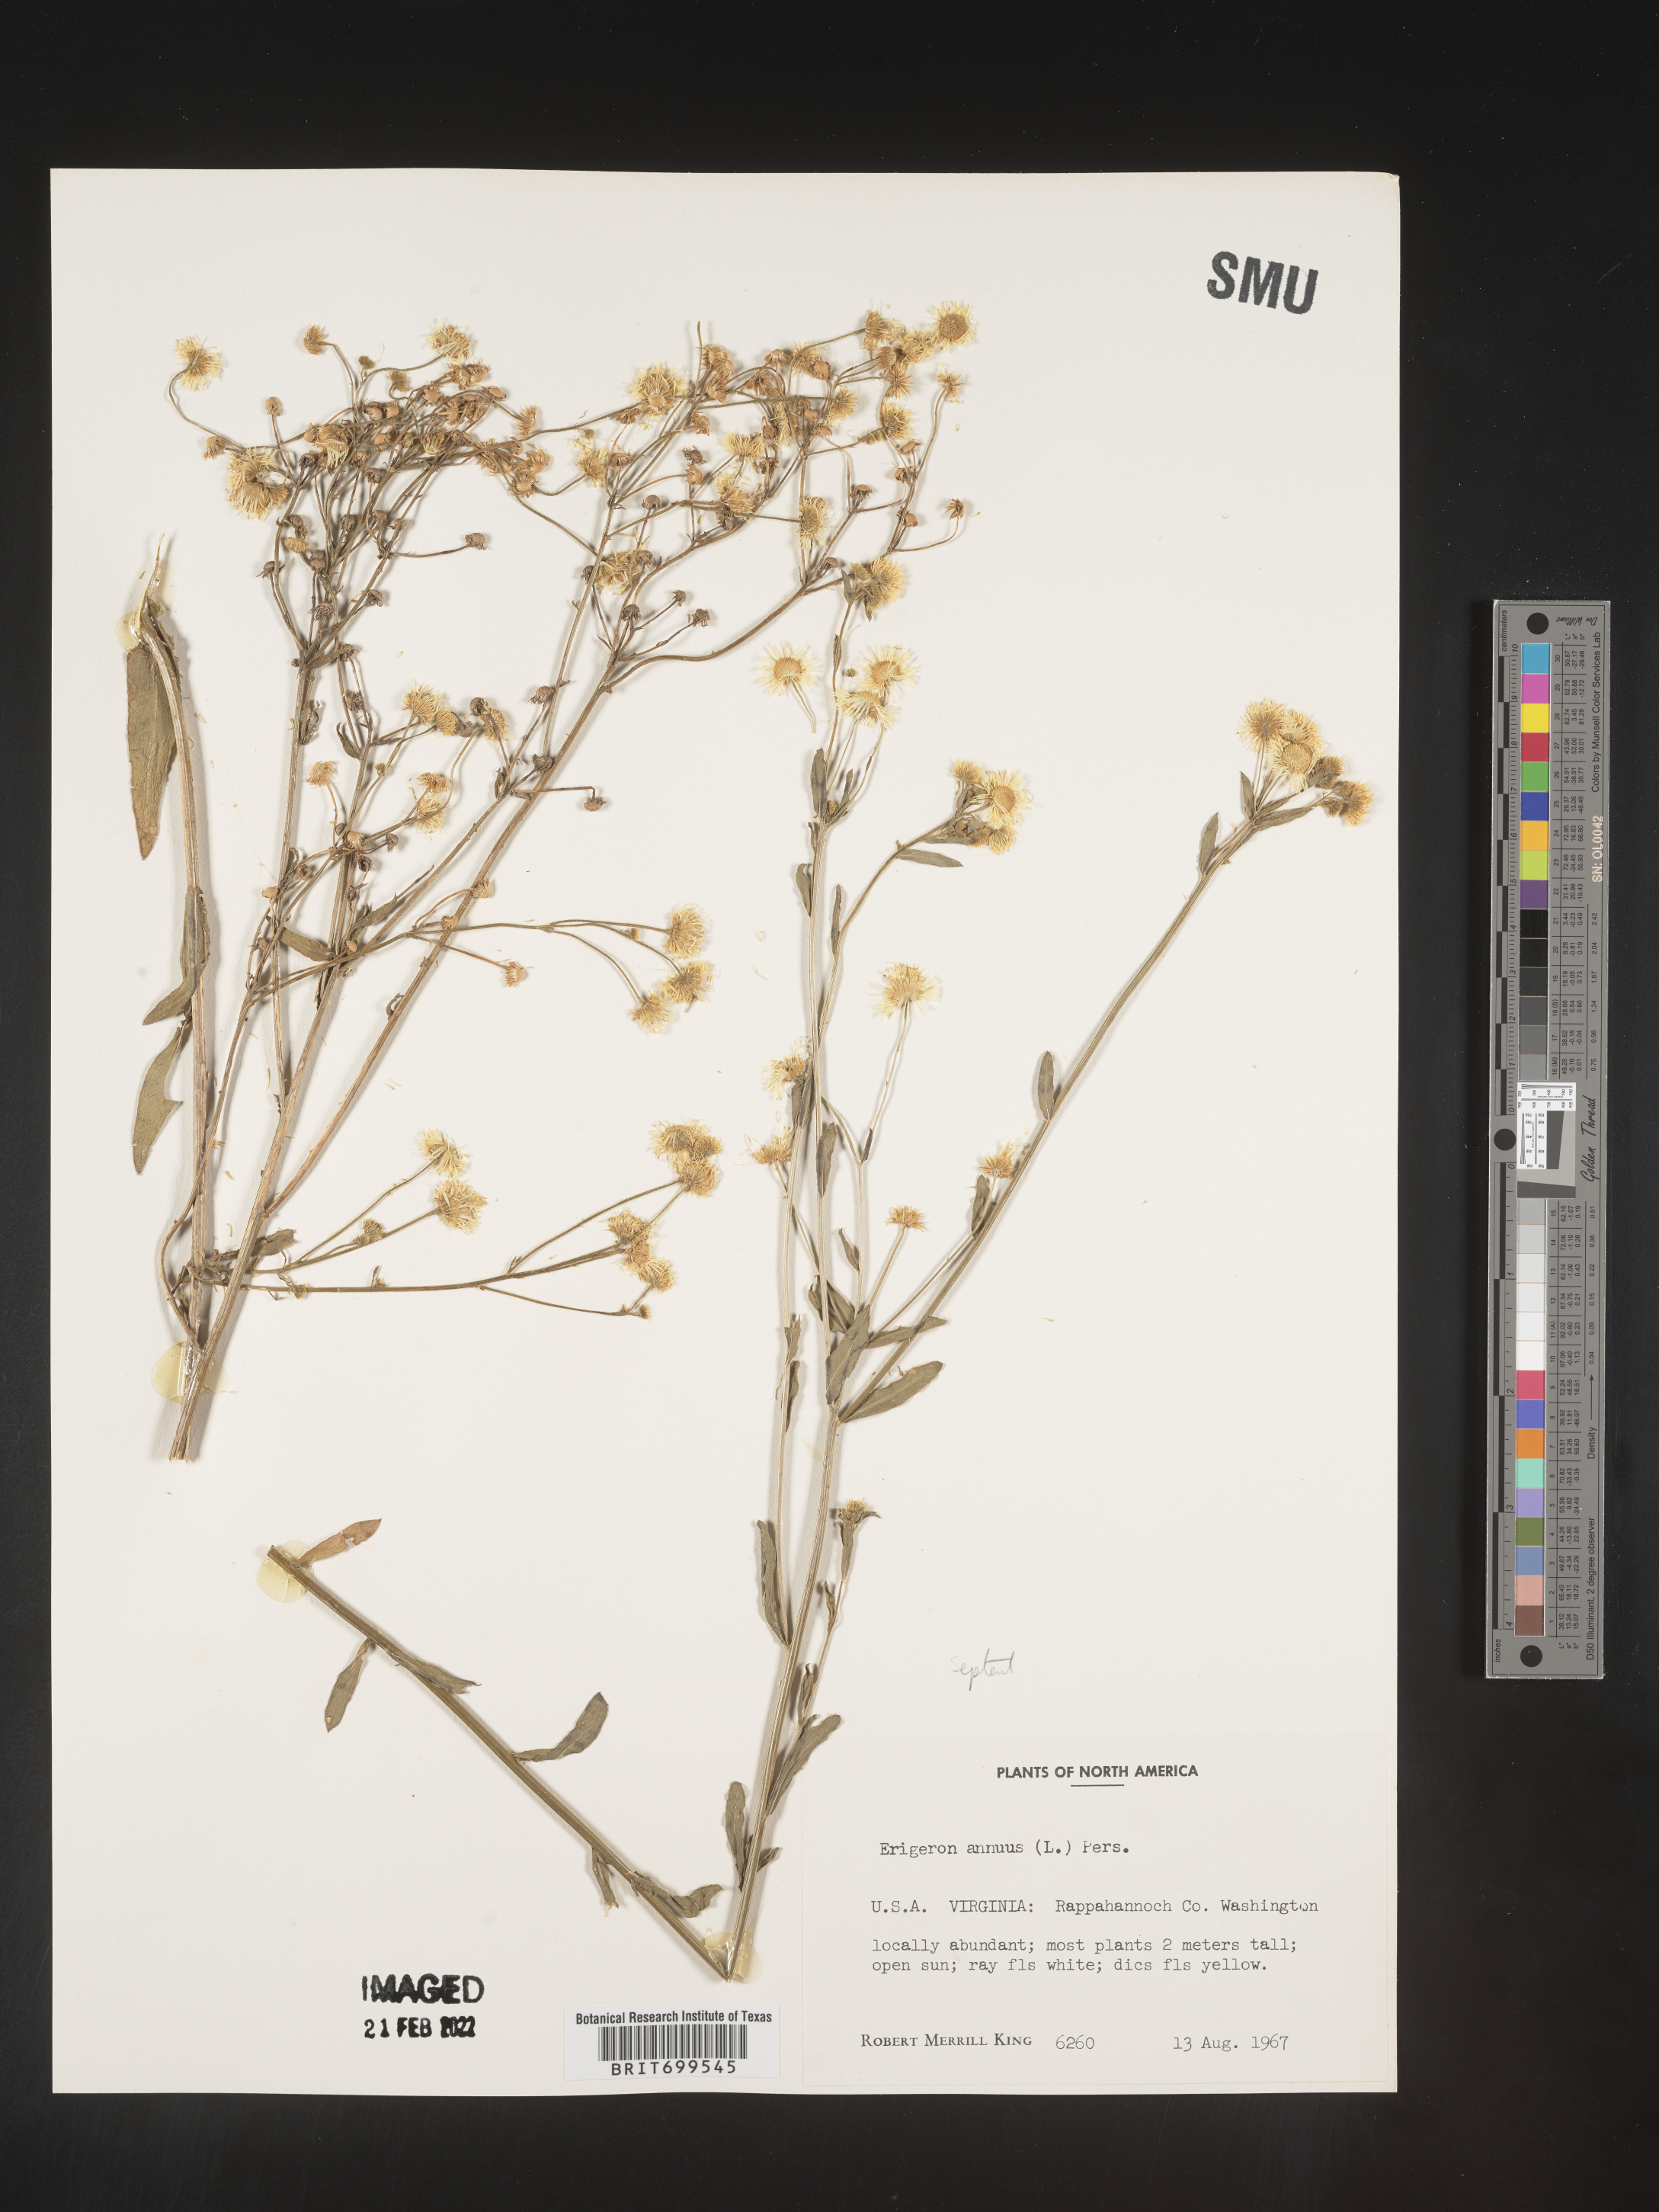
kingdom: Plantae
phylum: Tracheophyta
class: Magnoliopsida
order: Asterales
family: Asteraceae
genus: Erigeron
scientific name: Erigeron strigosus
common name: Common eastern fleabane
